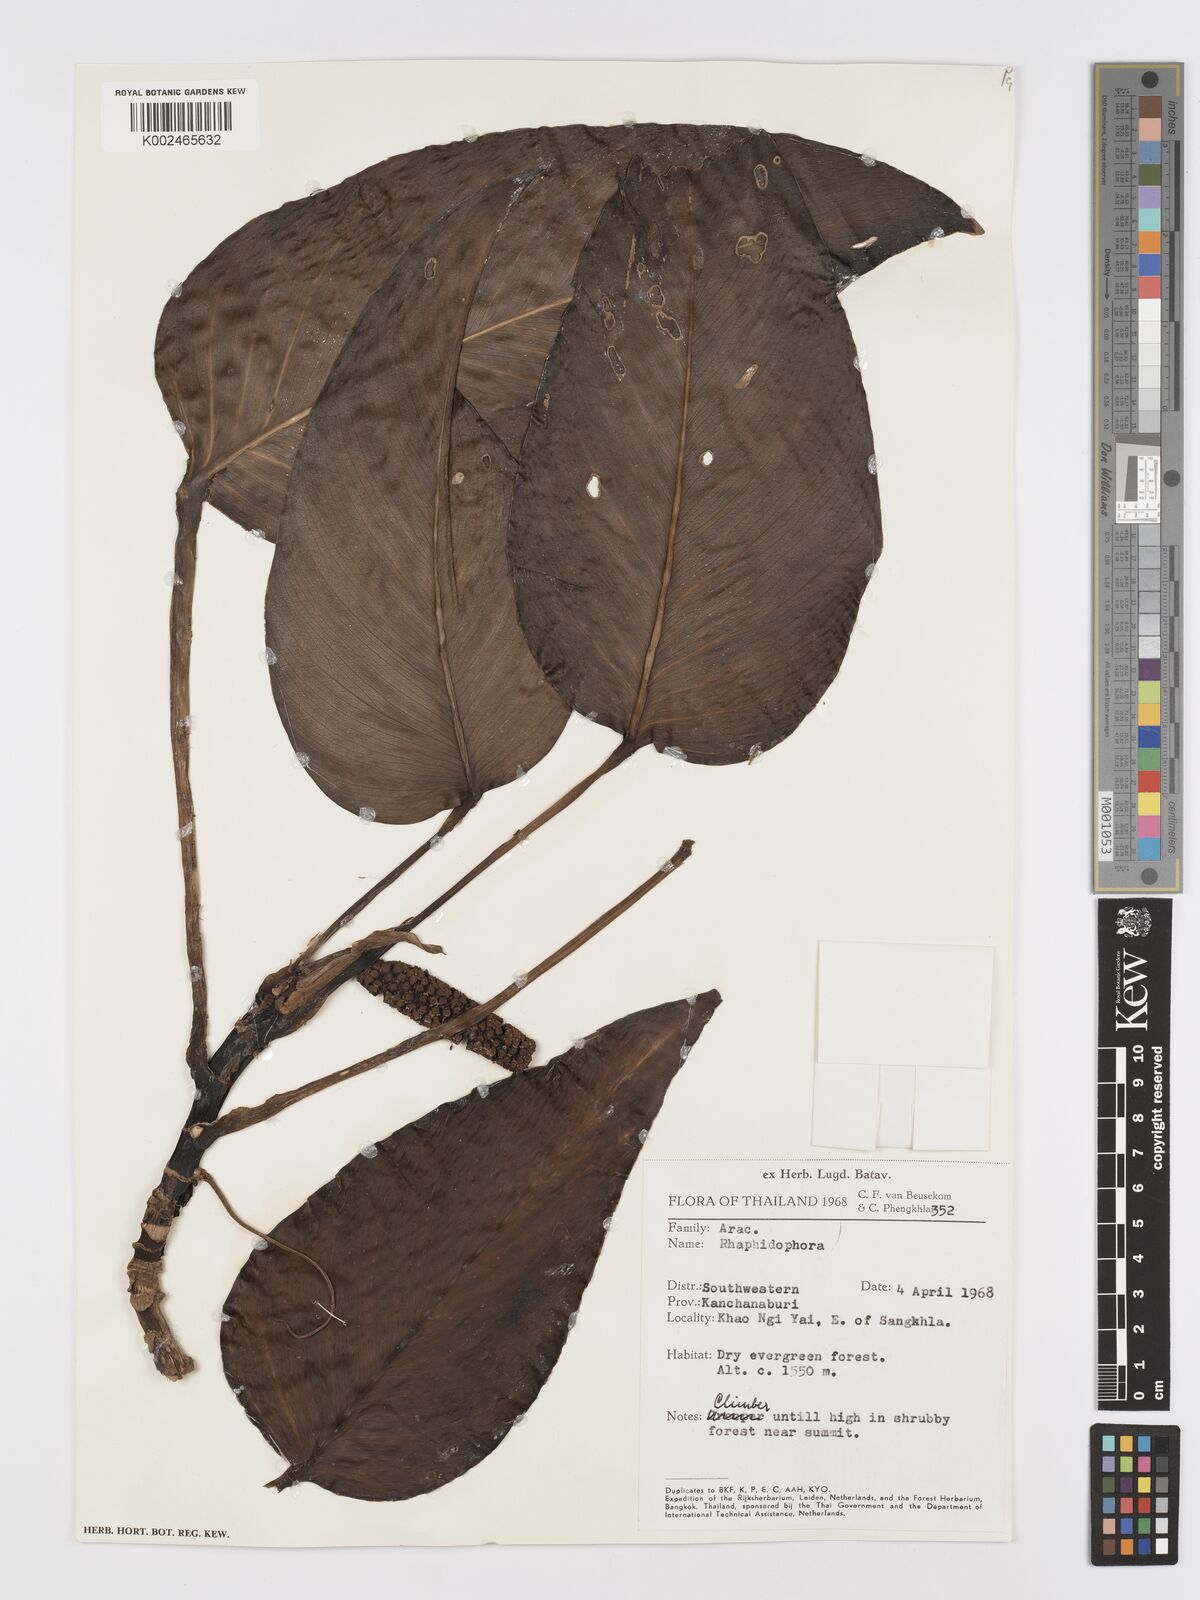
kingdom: Plantae
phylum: Tracheophyta
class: Liliopsida
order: Alismatales
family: Araceae
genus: Rhaphidophora
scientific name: Rhaphidophora peepla
